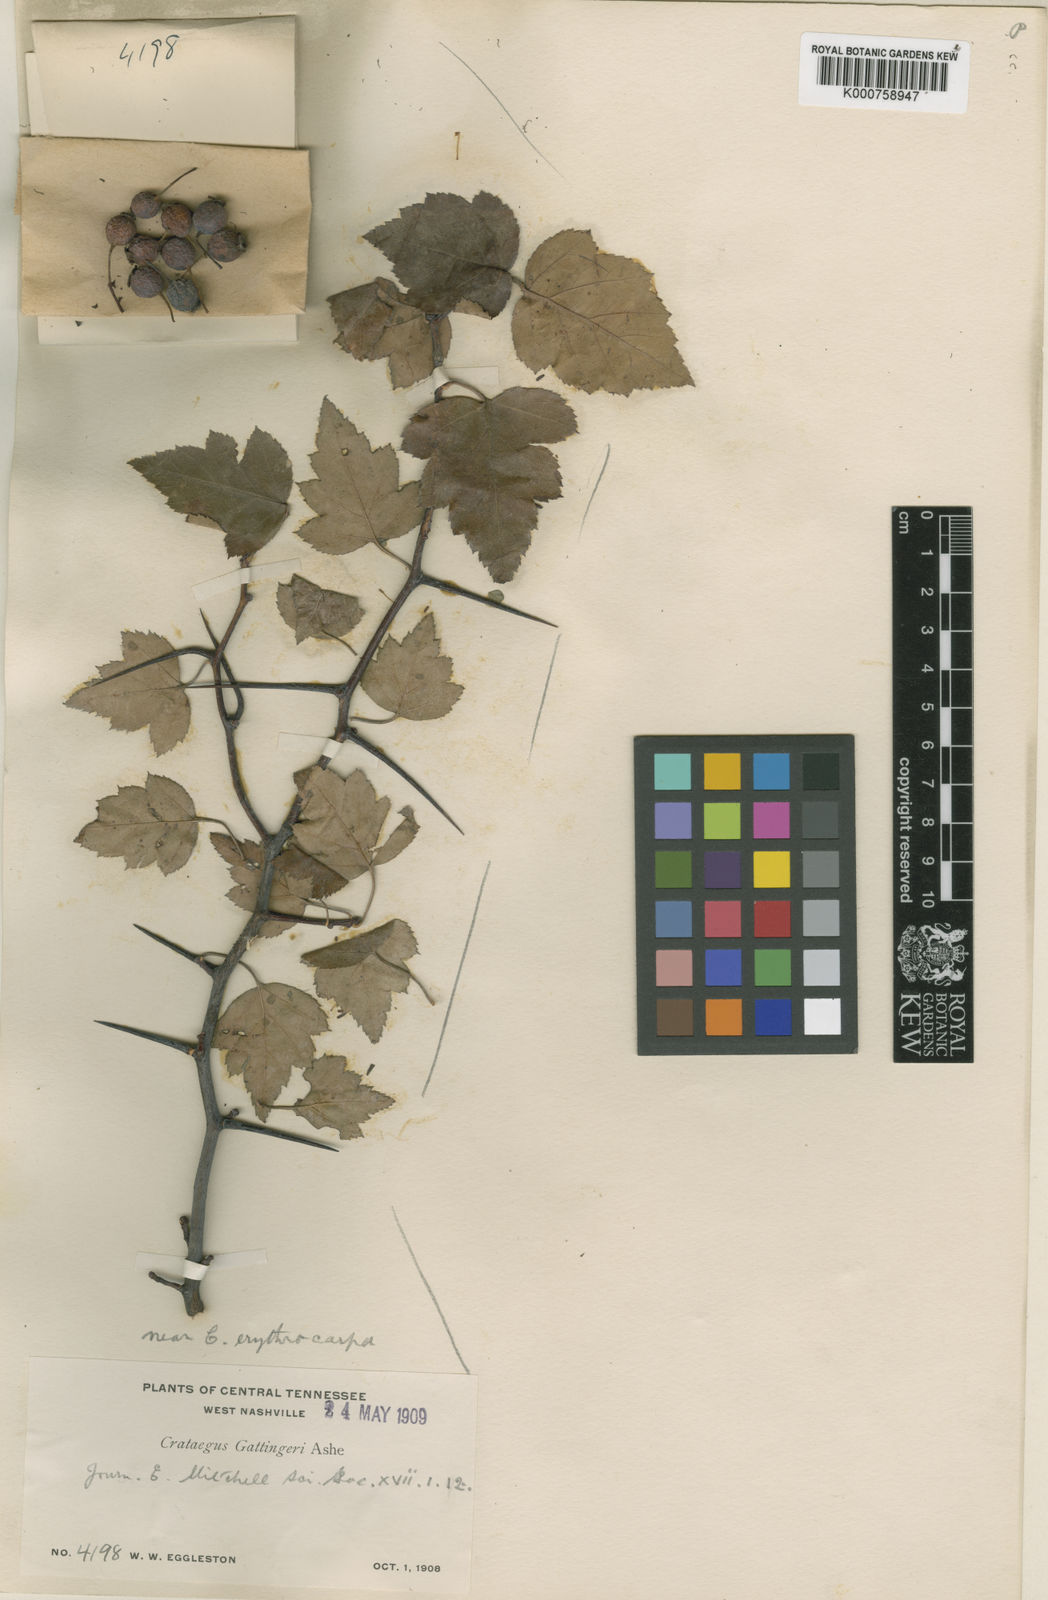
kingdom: Plantae
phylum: Tracheophyta
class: Magnoliopsida
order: Rosales
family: Rosaceae
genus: Crataegus
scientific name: Crataegus gattingeri
